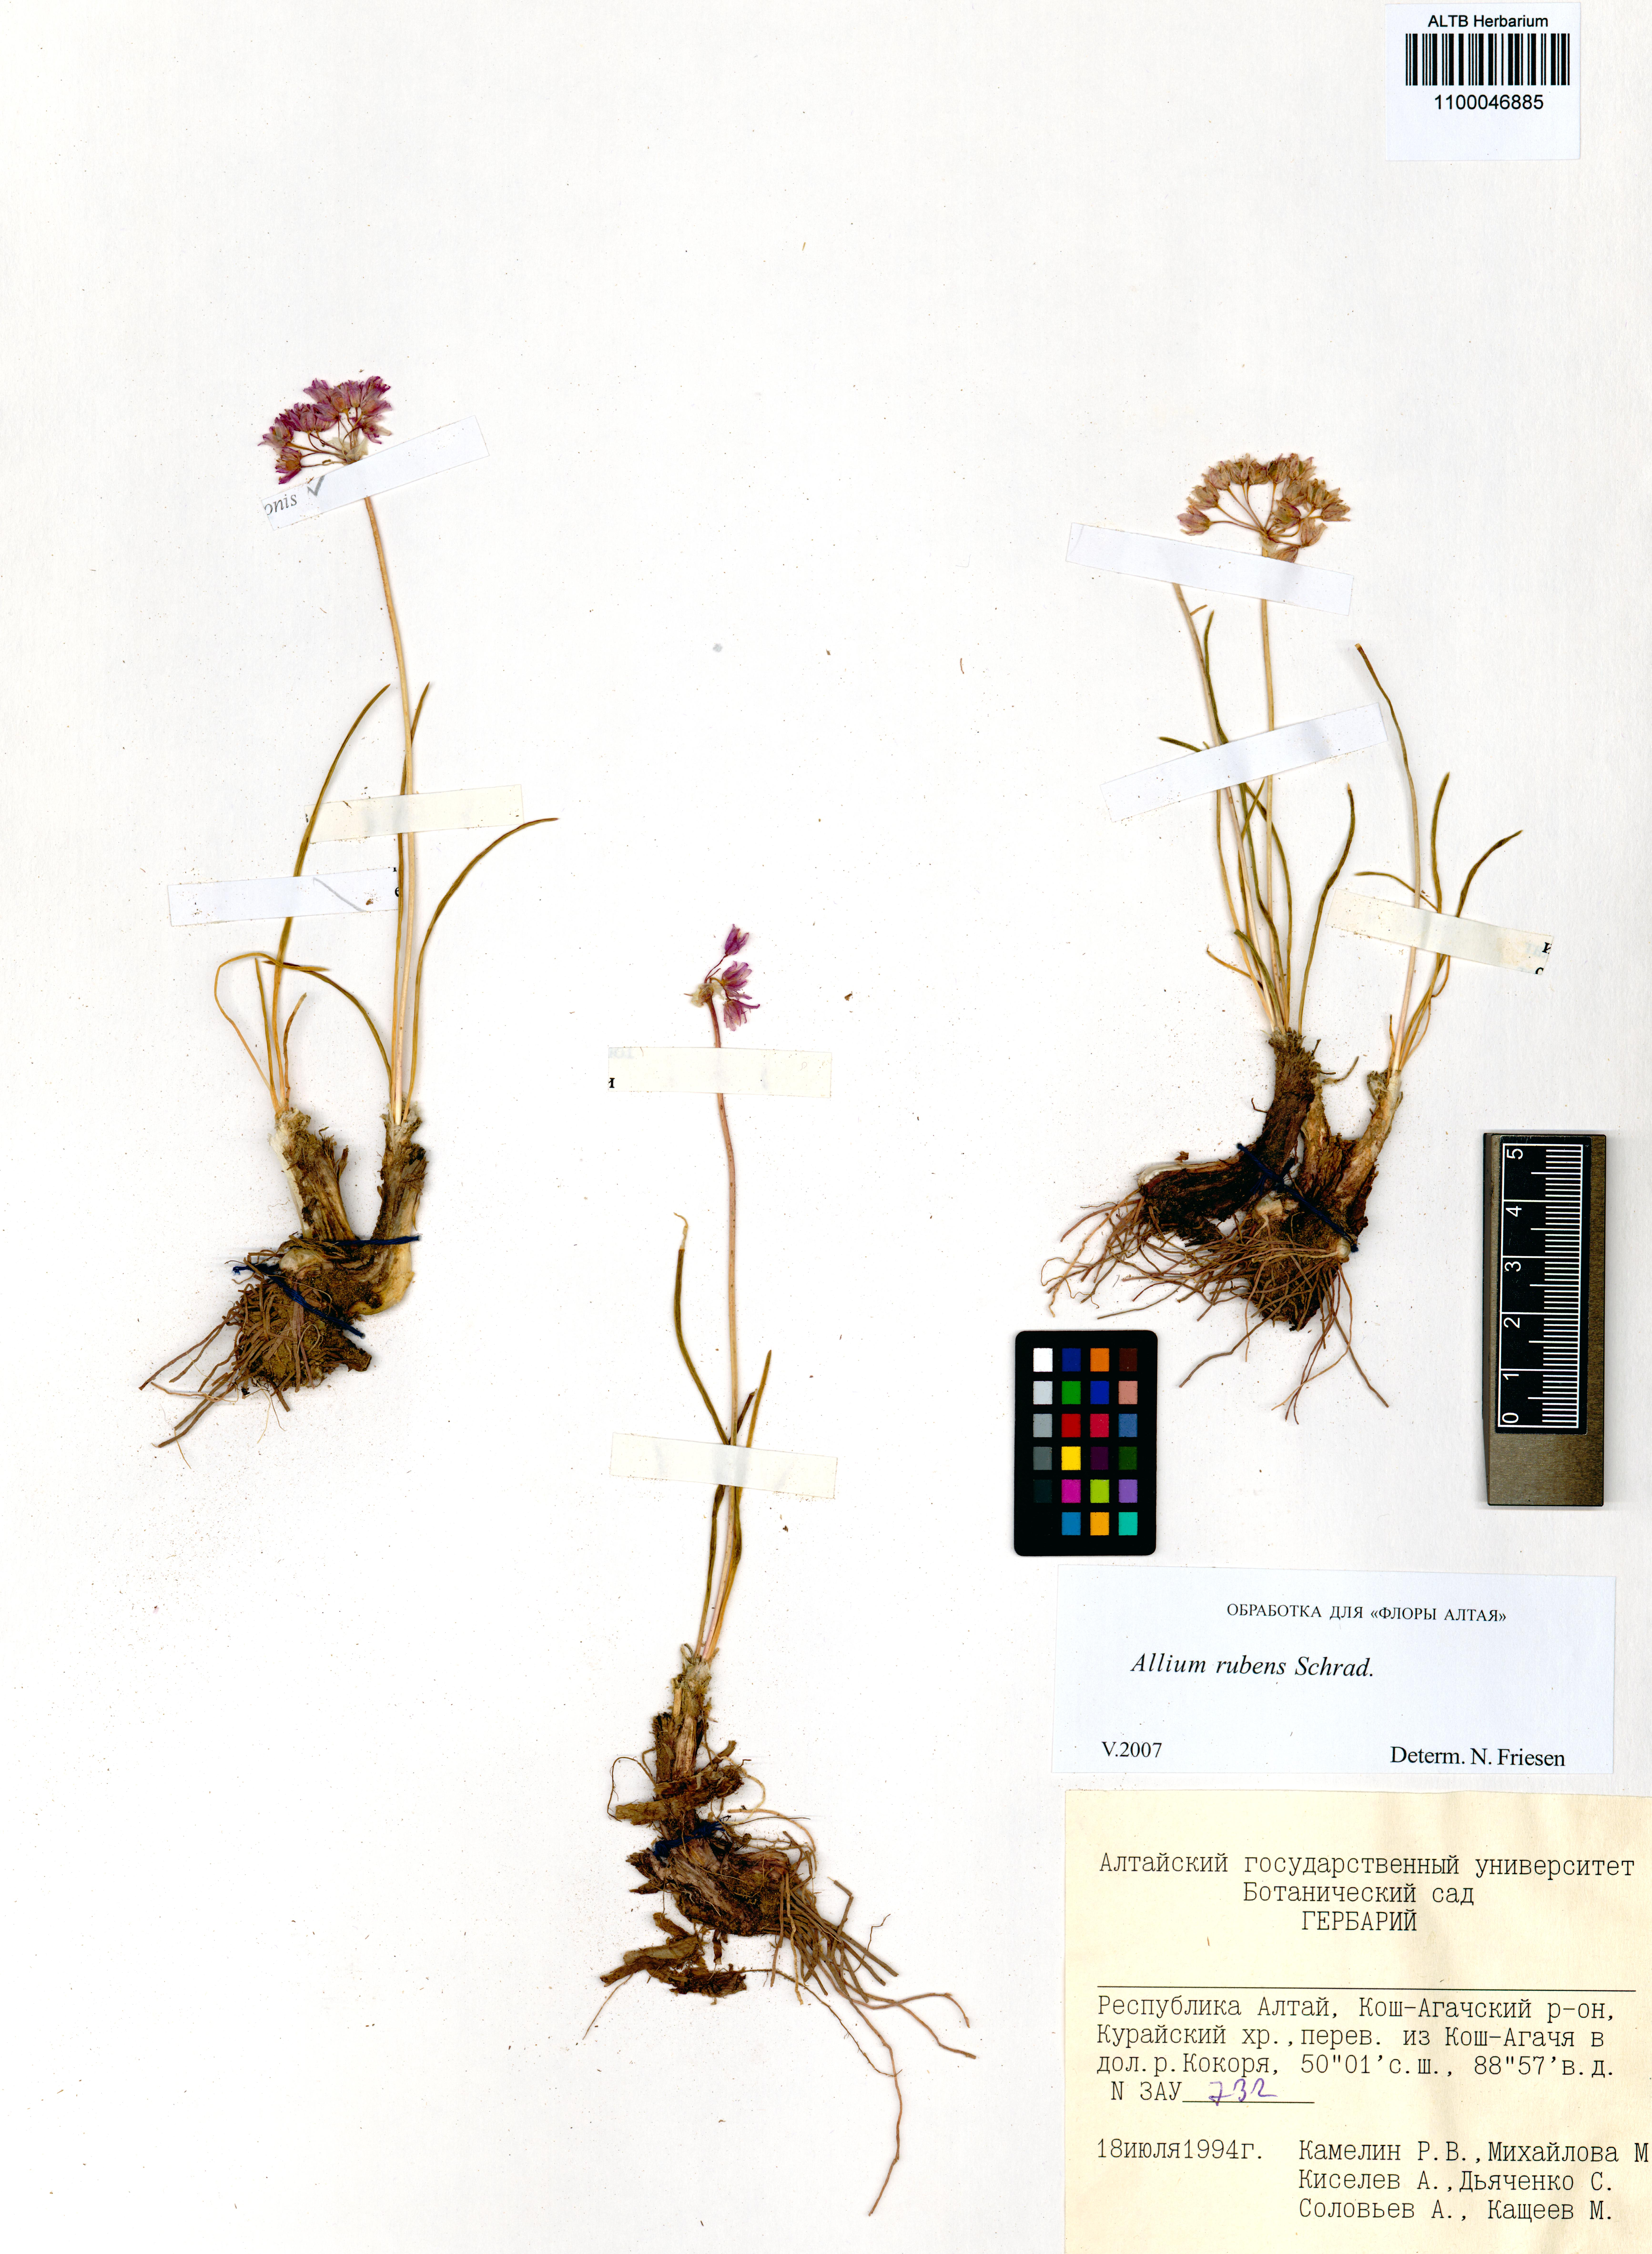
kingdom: Plantae
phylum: Tracheophyta
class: Liliopsida
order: Asparagales
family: Amaryllidaceae
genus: Allium
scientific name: Allium rubens
